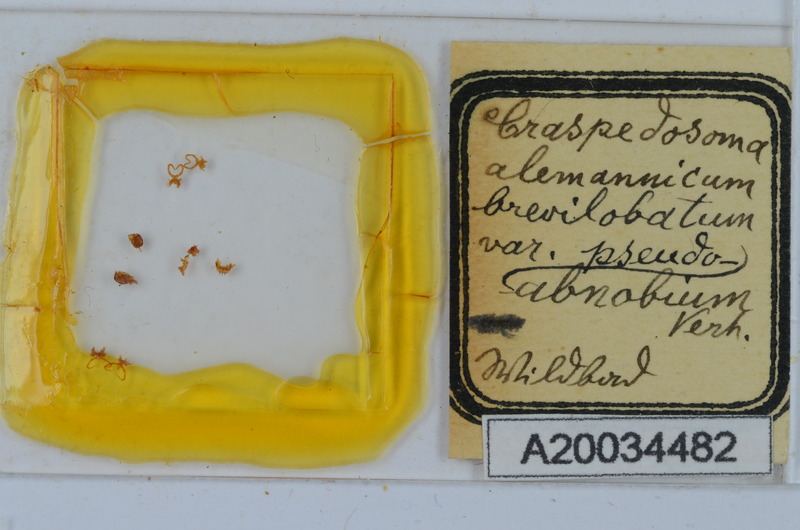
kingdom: Animalia
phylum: Arthropoda
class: Diplopoda
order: Chordeumatida
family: Craspedosomatidae
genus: Craspedosoma
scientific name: Craspedosoma rawlinsii
